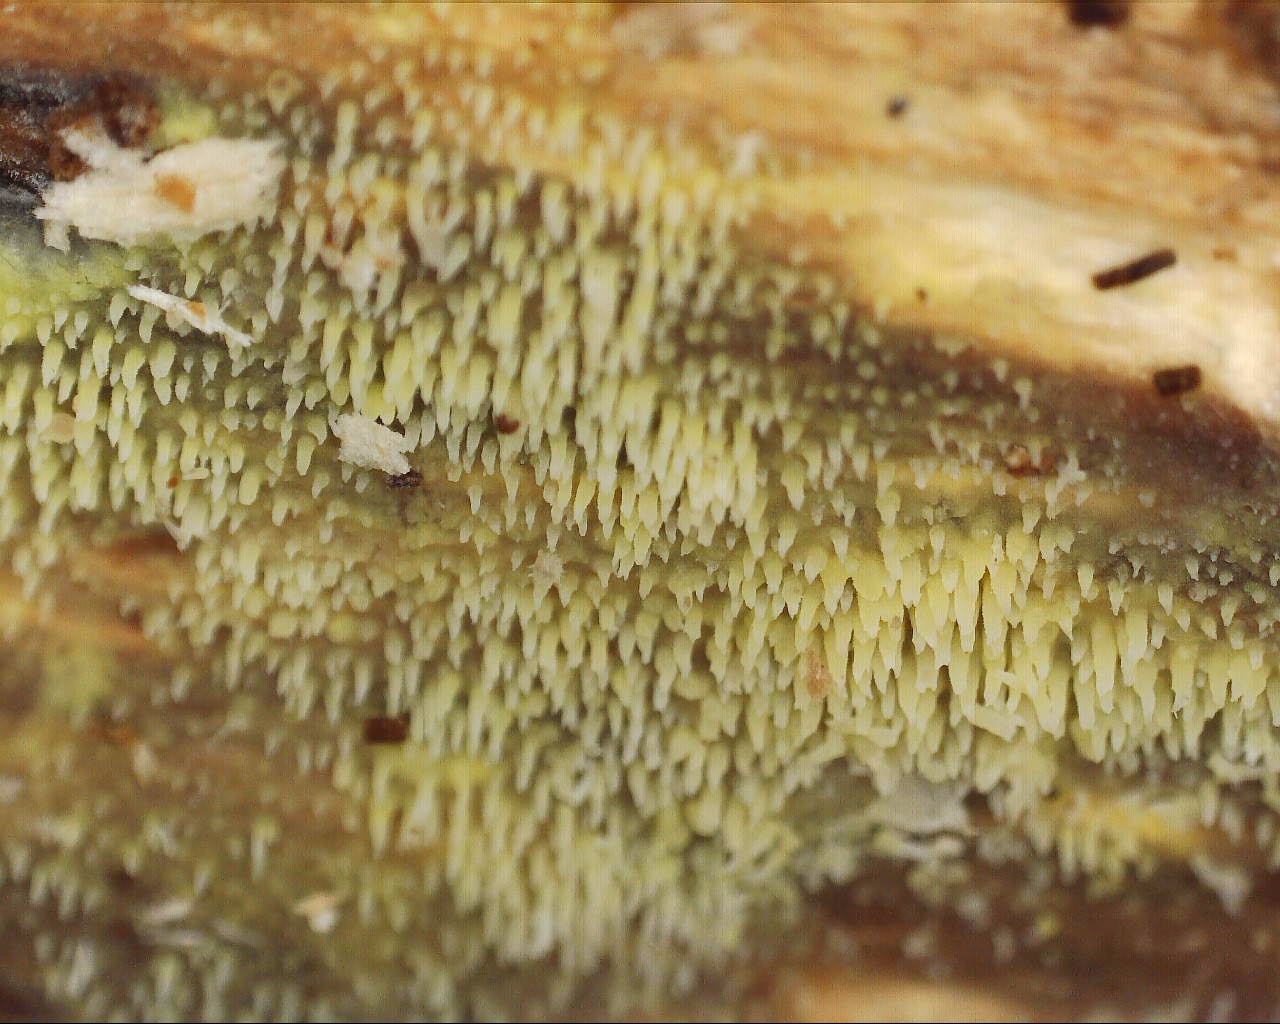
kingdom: Fungi
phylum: Basidiomycota
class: Agaricomycetes
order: Polyporales
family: Meruliaceae
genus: Mycoacia
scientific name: Mycoacia uda
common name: citrongul vokspig
